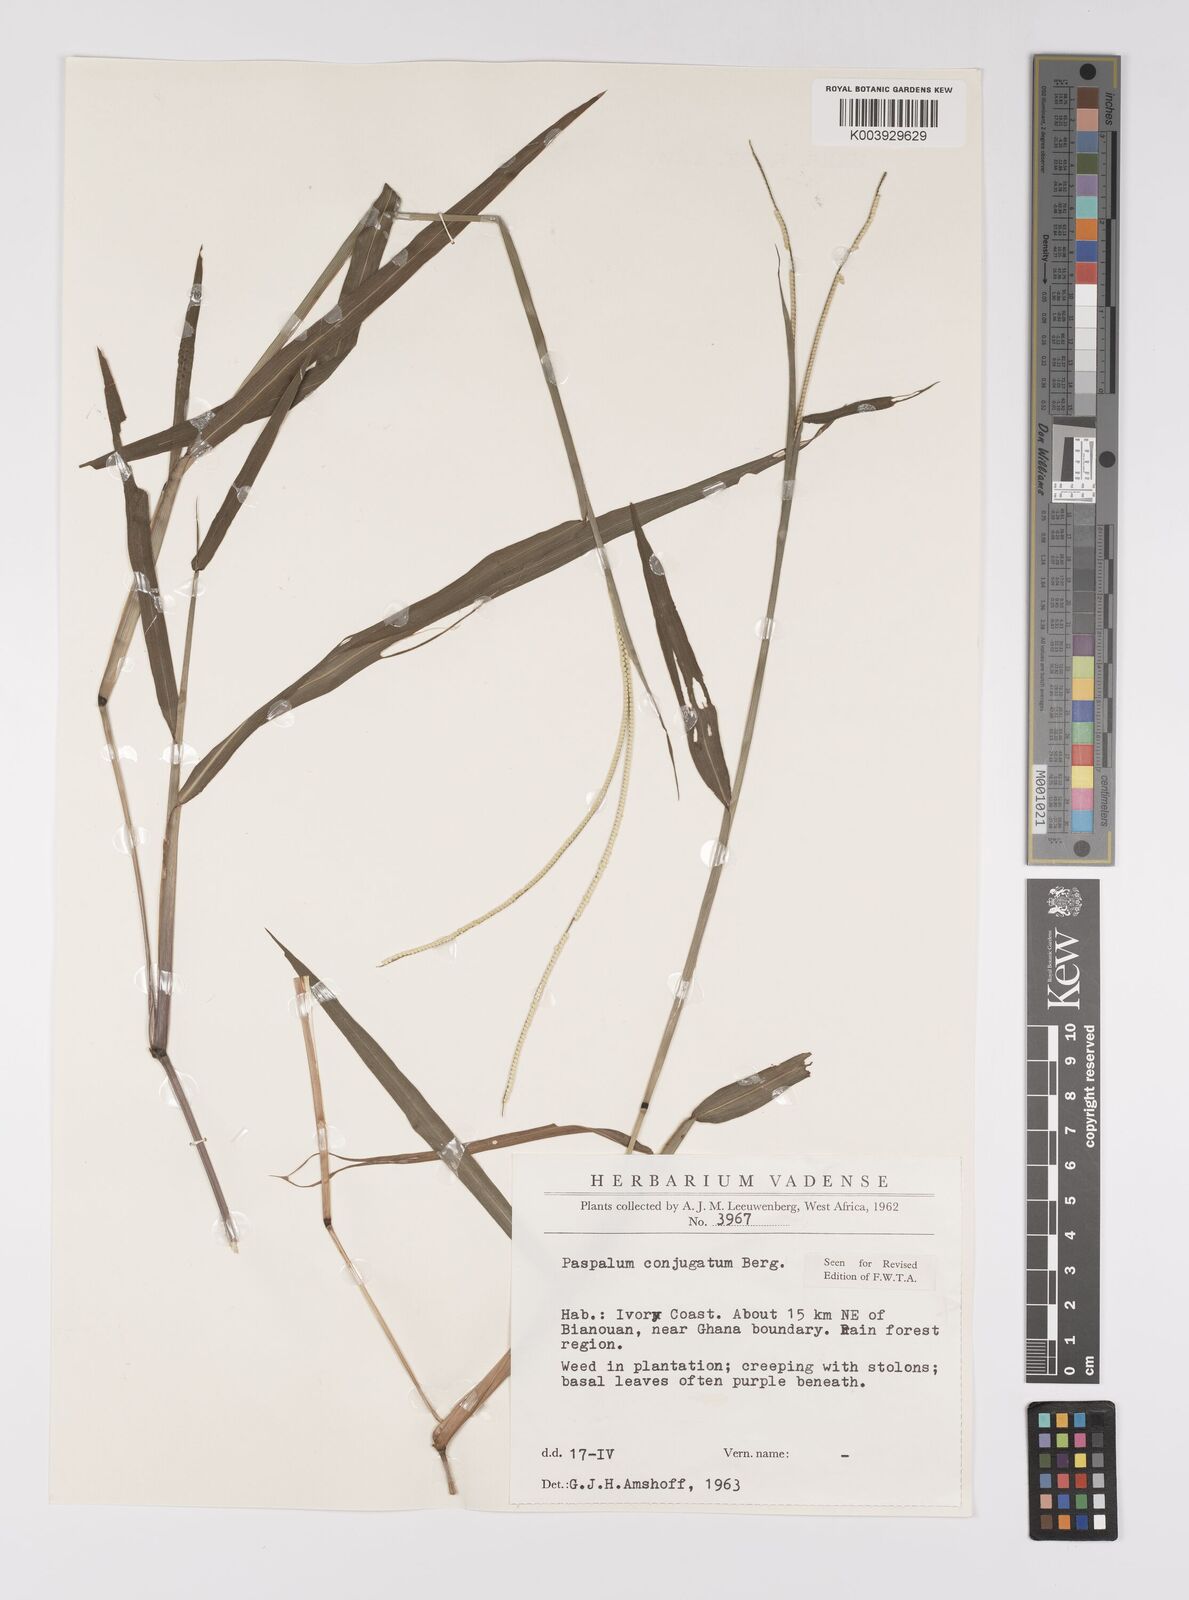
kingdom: Plantae
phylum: Tracheophyta
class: Liliopsida
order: Poales
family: Poaceae
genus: Paspalum
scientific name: Paspalum conjugatum
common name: Hilograss
